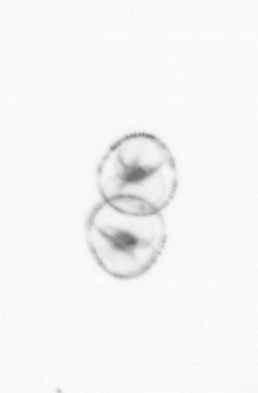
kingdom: Chromista
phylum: Myzozoa
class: Dinophyceae
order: Noctilucales
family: Noctilucaceae
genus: Noctiluca
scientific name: Noctiluca scintillans
